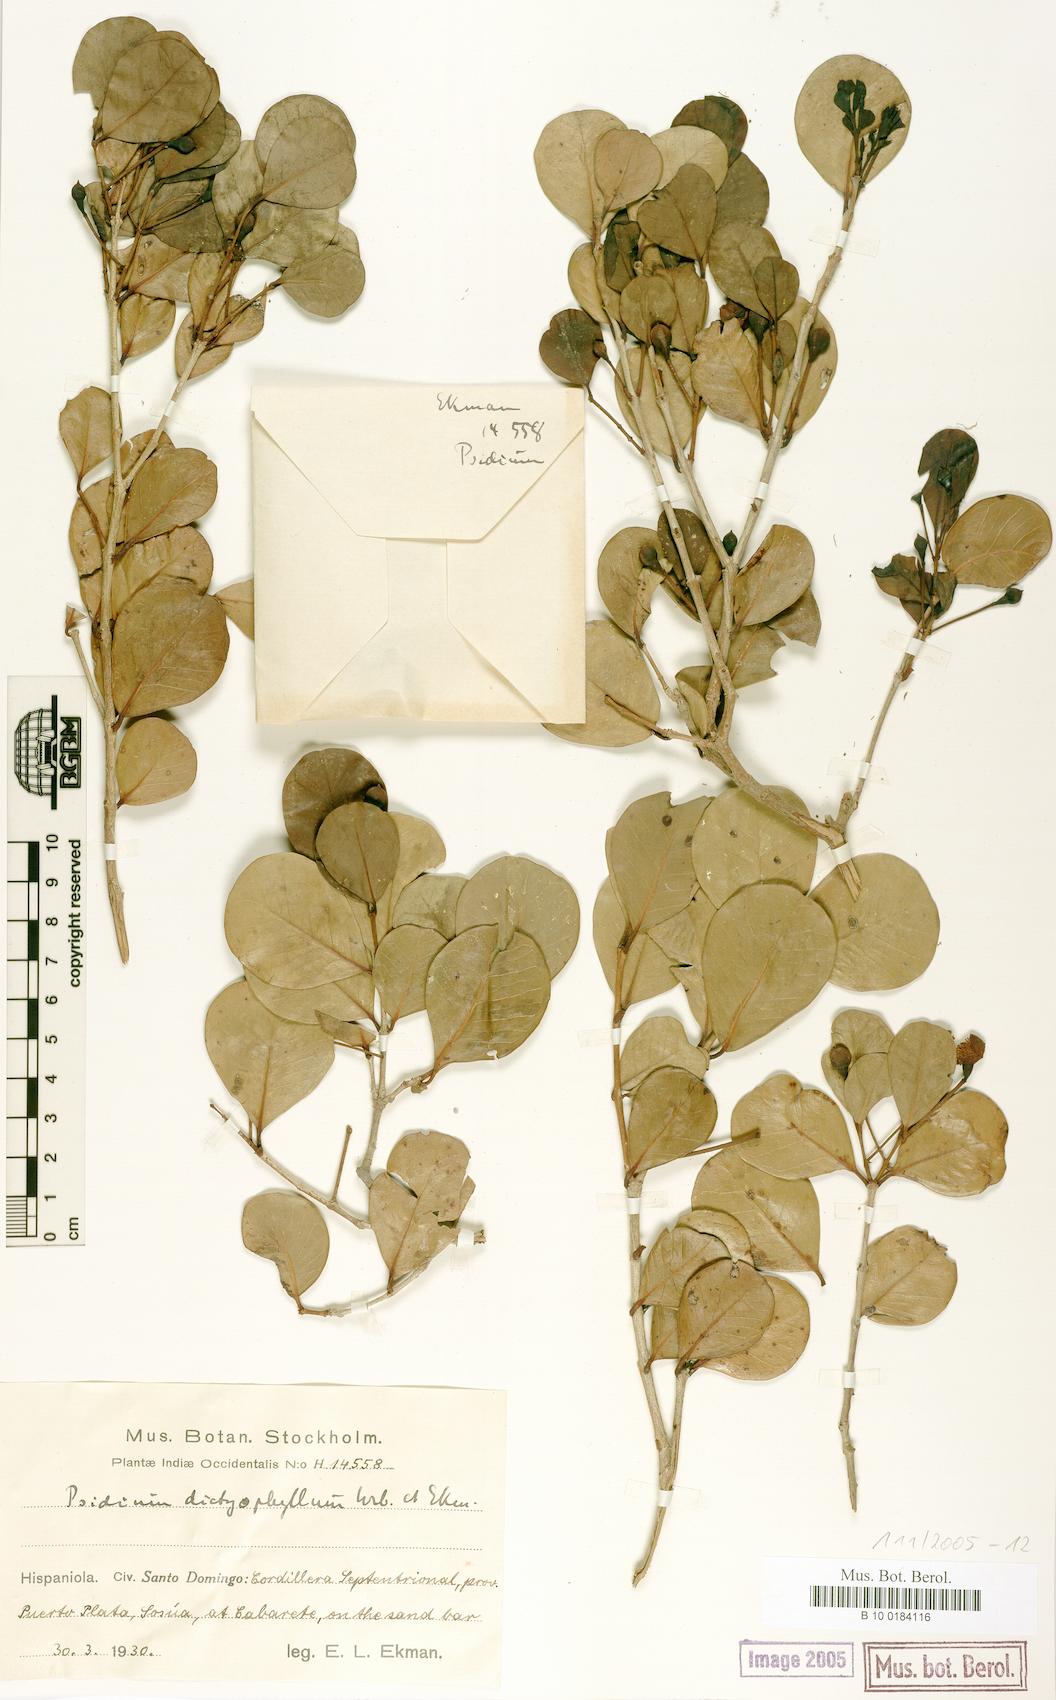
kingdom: Plantae
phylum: Tracheophyta
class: Magnoliopsida
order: Myrtales
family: Myrtaceae
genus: Psidium
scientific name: Psidium dictyophyllum
